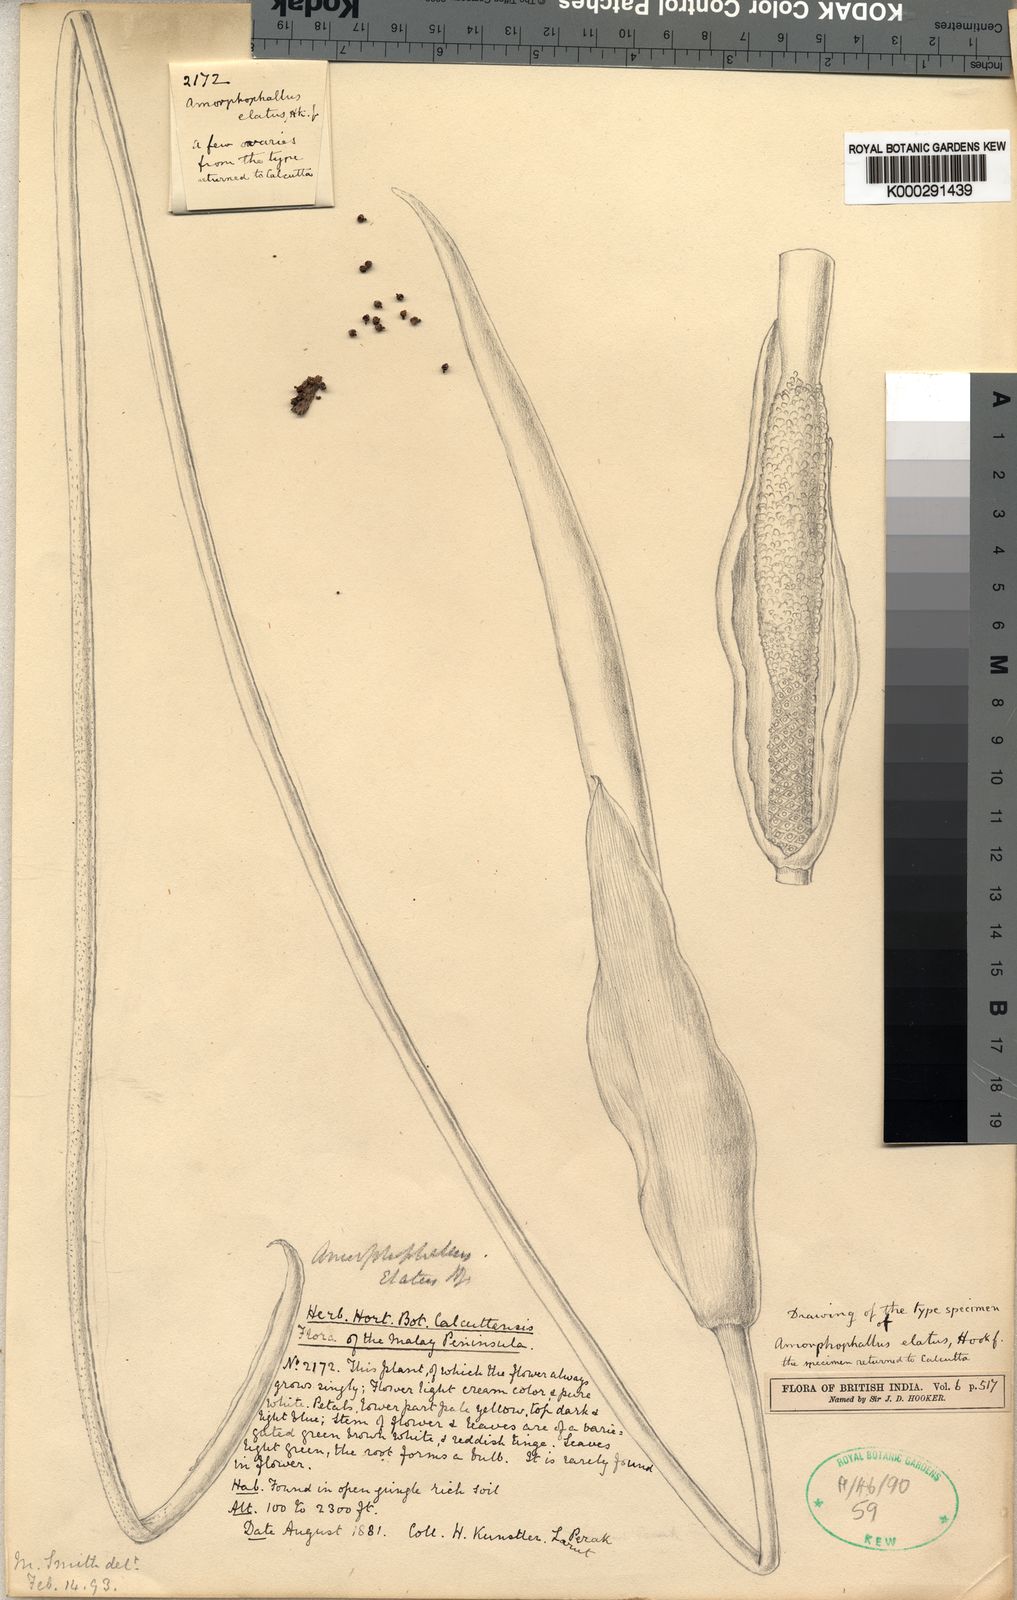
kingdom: Plantae
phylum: Tracheophyta
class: Liliopsida
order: Alismatales
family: Araceae
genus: Amorphophallus
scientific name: Amorphophallus elatus
